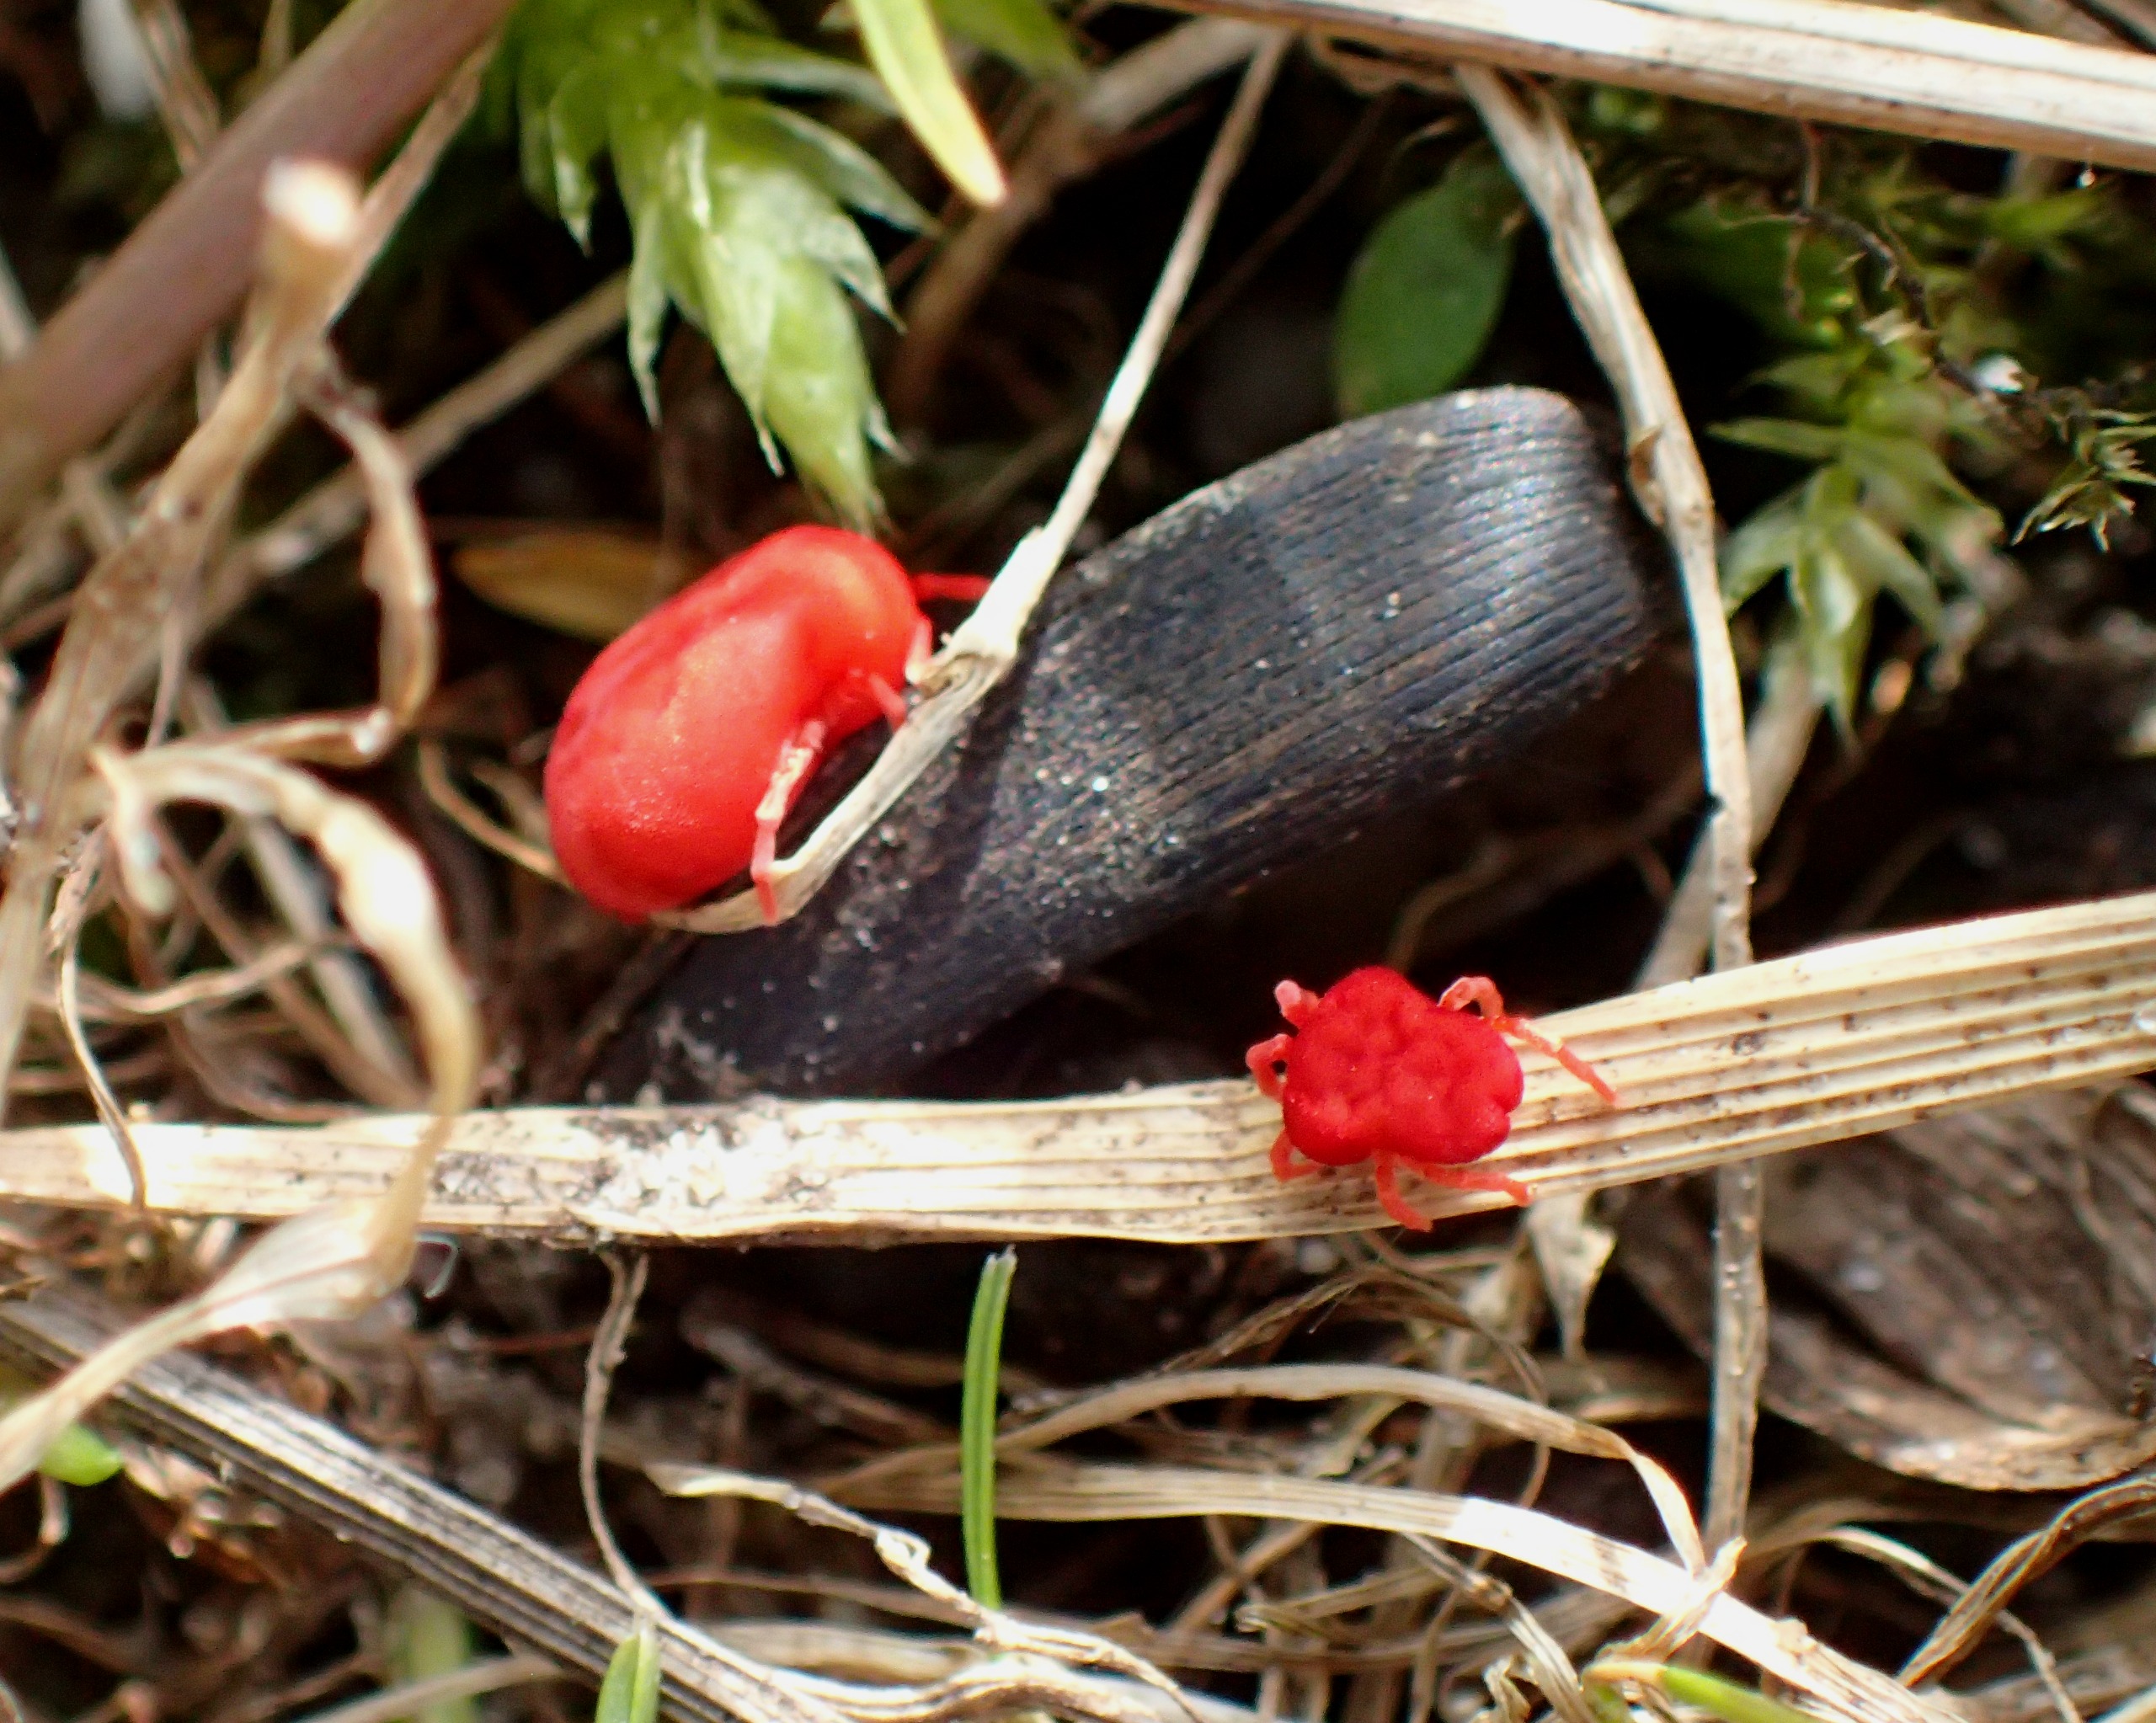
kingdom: Animalia
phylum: Arthropoda
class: Arachnida
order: Trombidiformes
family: Trombidiidae
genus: Trombidium
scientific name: Trombidium holosericeum
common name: Rød jordmide
